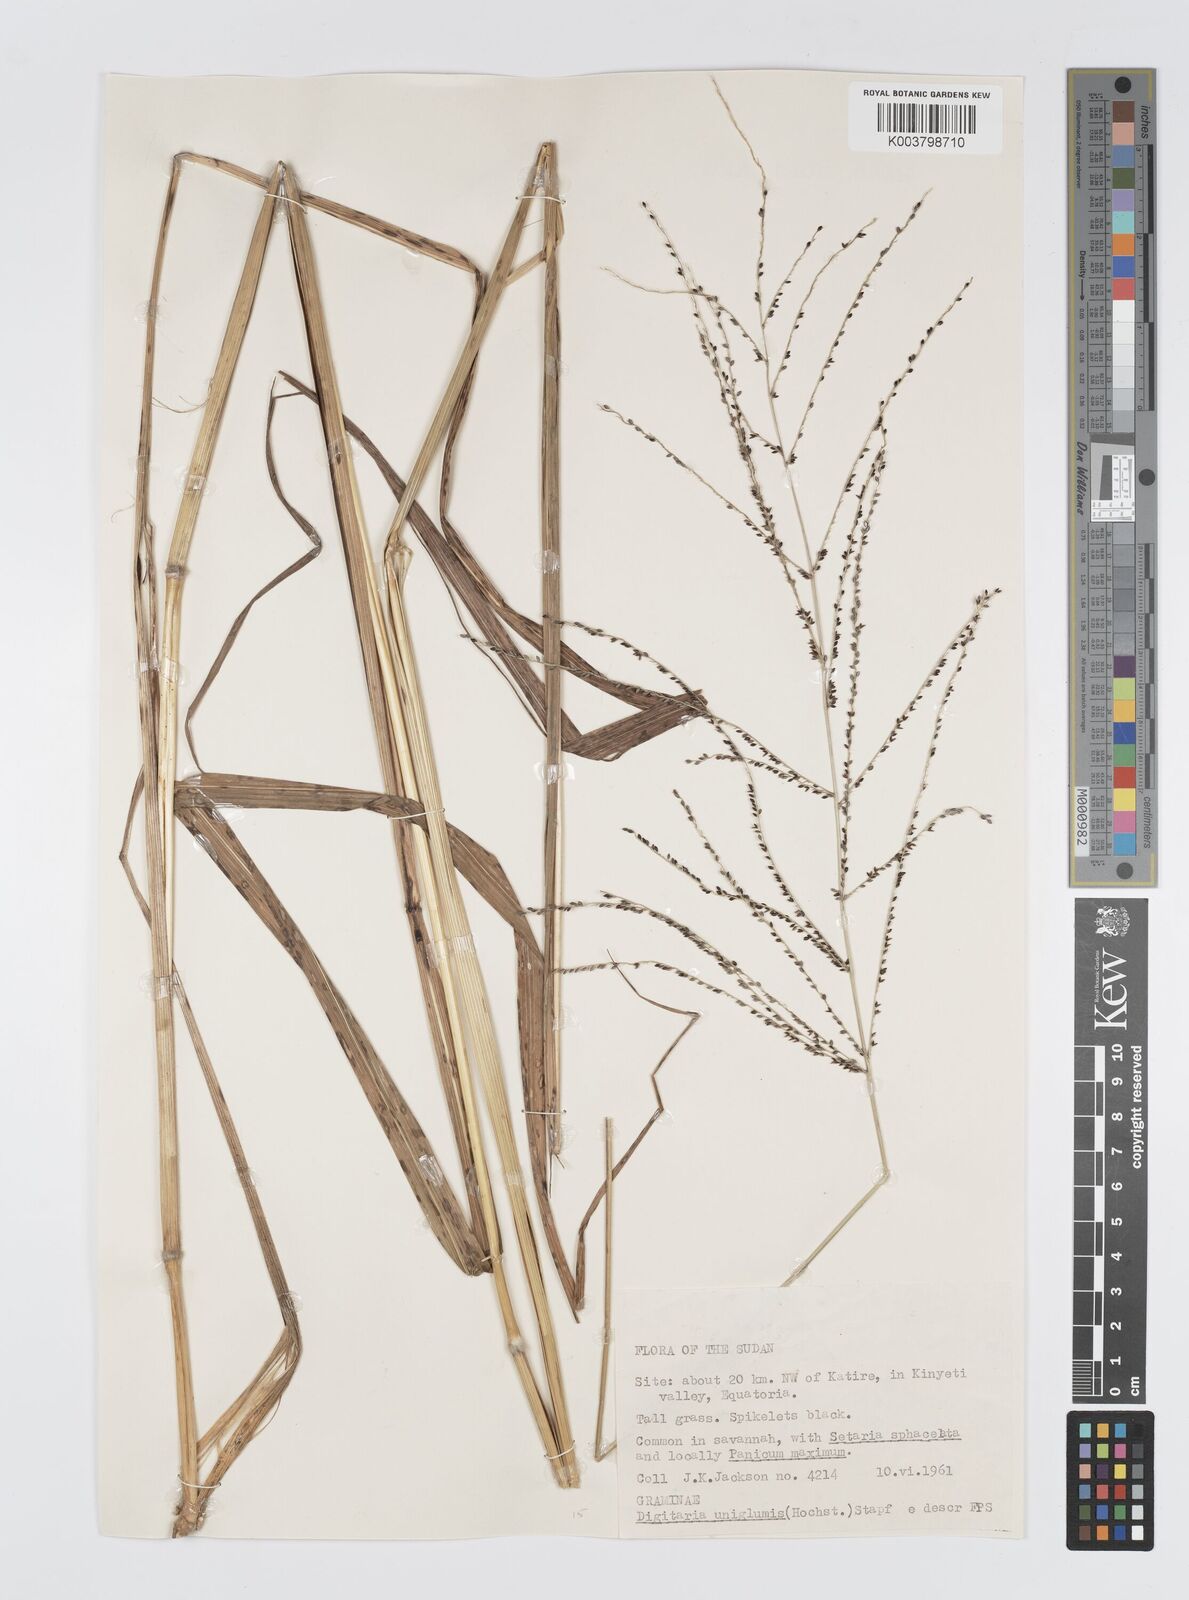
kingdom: Plantae
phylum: Tracheophyta
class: Liliopsida
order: Poales
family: Poaceae
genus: Digitaria
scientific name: Digitaria diagonalis
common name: Brown-seed finger grass
